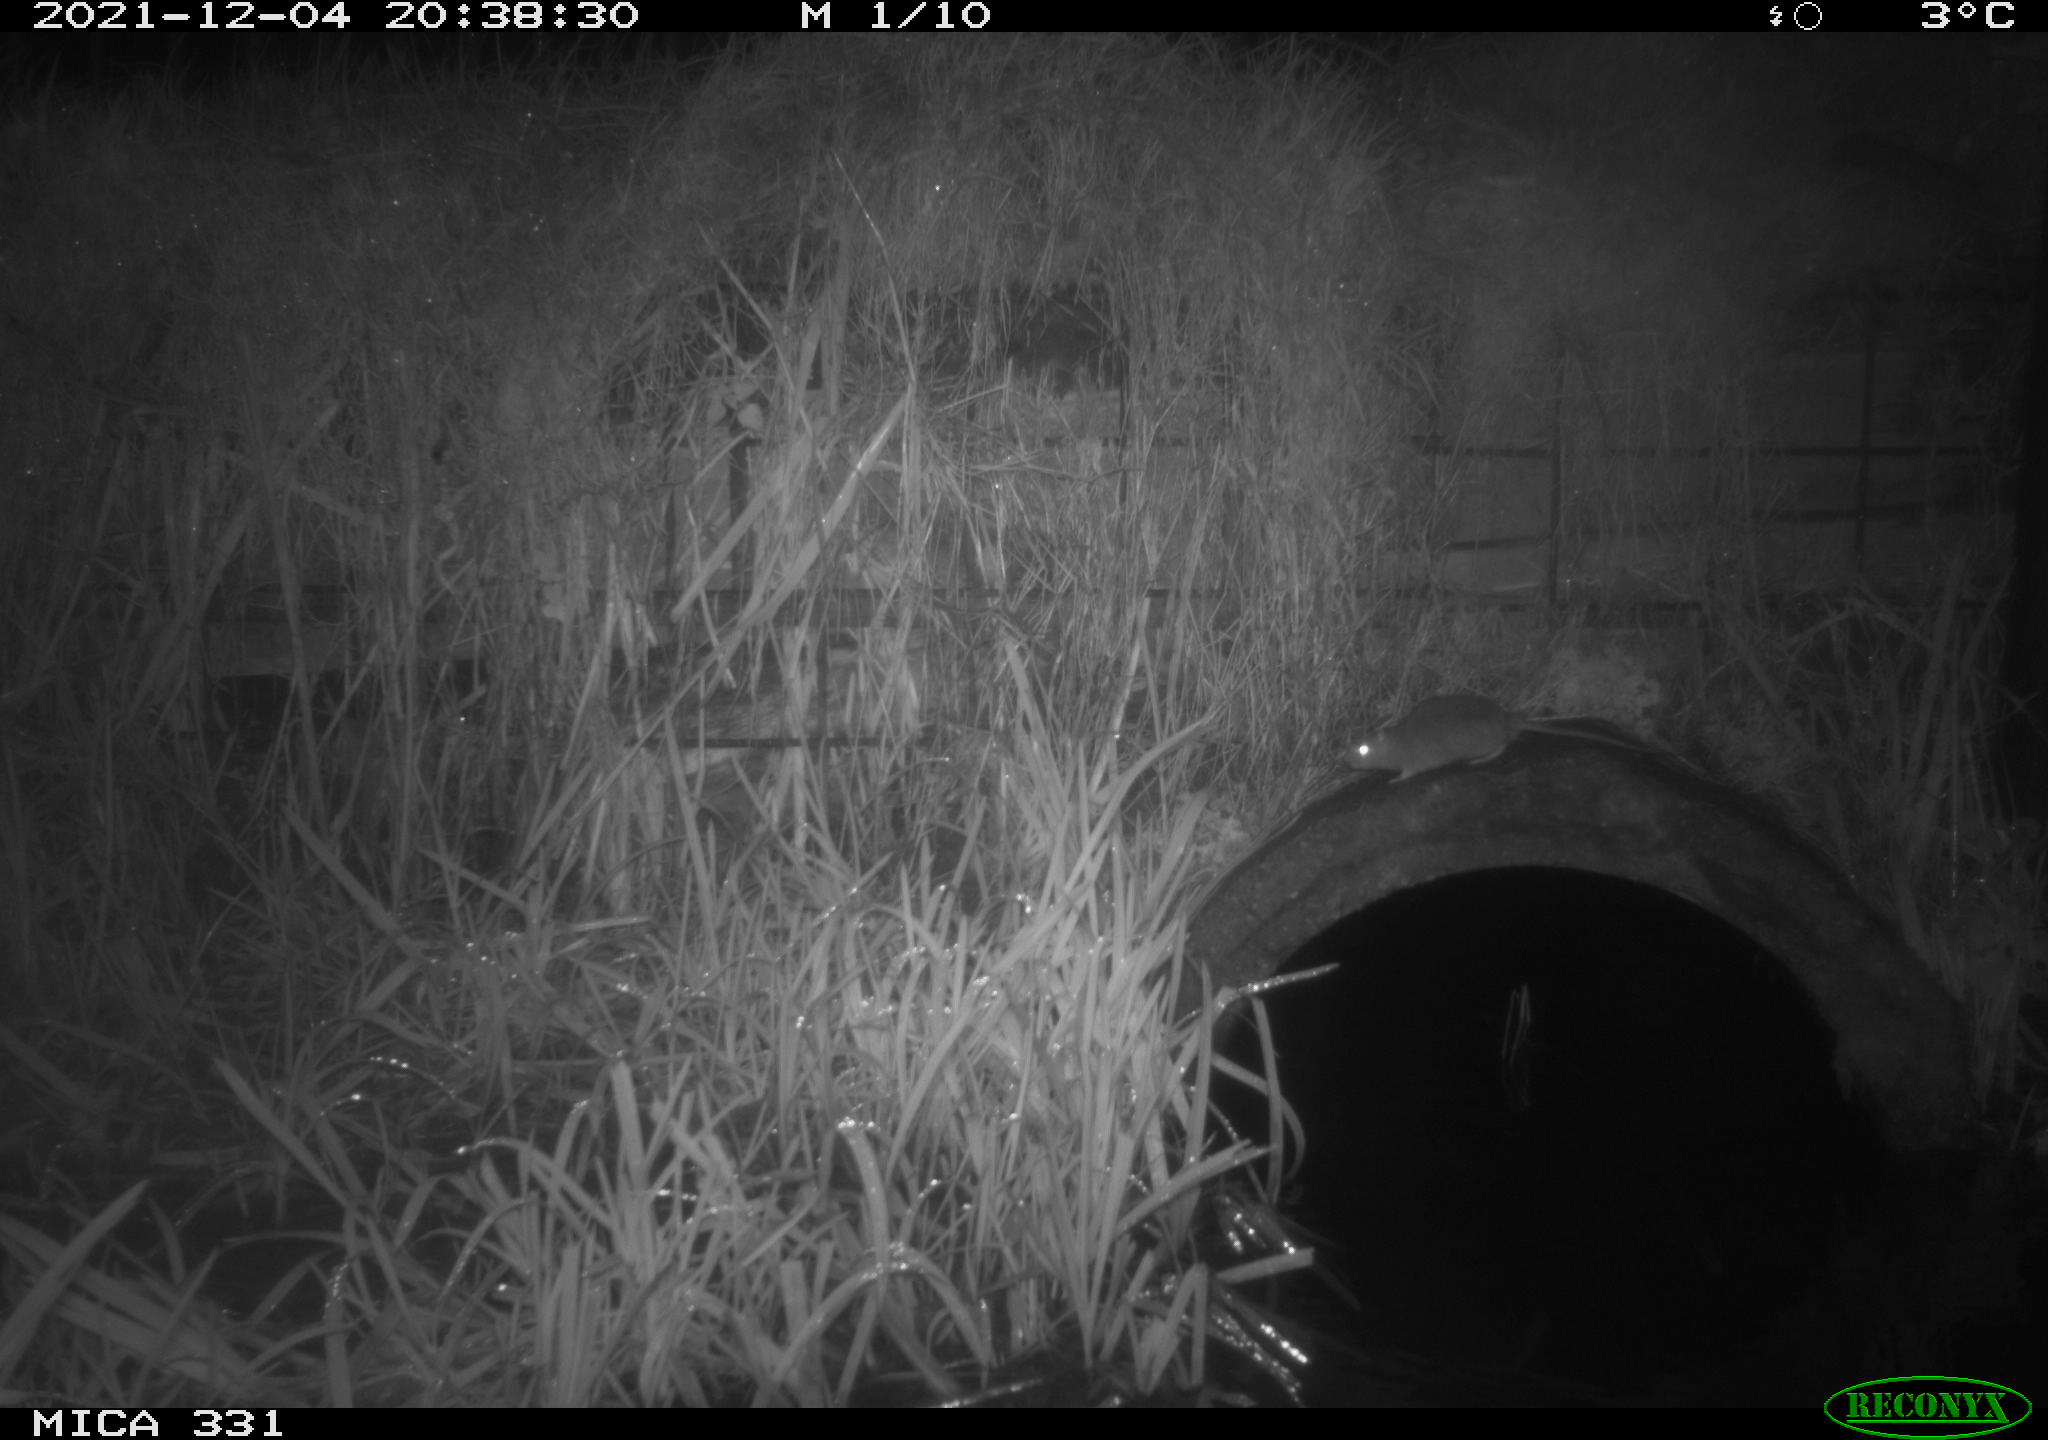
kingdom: Animalia
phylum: Chordata
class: Mammalia
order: Rodentia
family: Muridae
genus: Rattus
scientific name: Rattus norvegicus
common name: Brown rat
